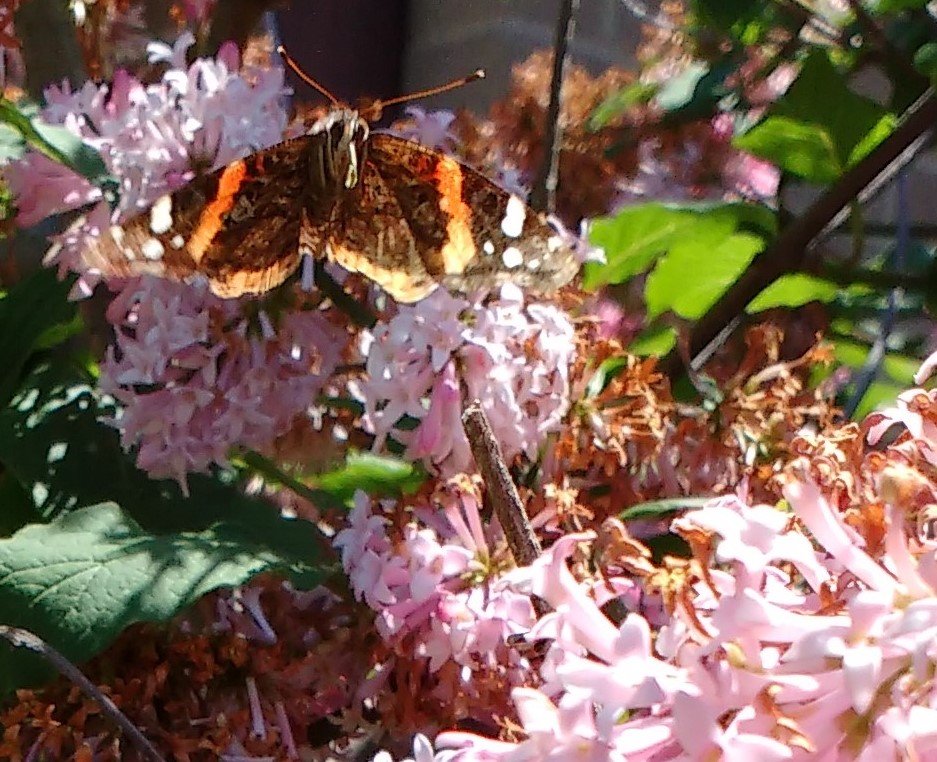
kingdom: Animalia
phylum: Arthropoda
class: Insecta
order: Lepidoptera
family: Nymphalidae
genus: Vanessa
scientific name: Vanessa atalanta
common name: Red Admiral
